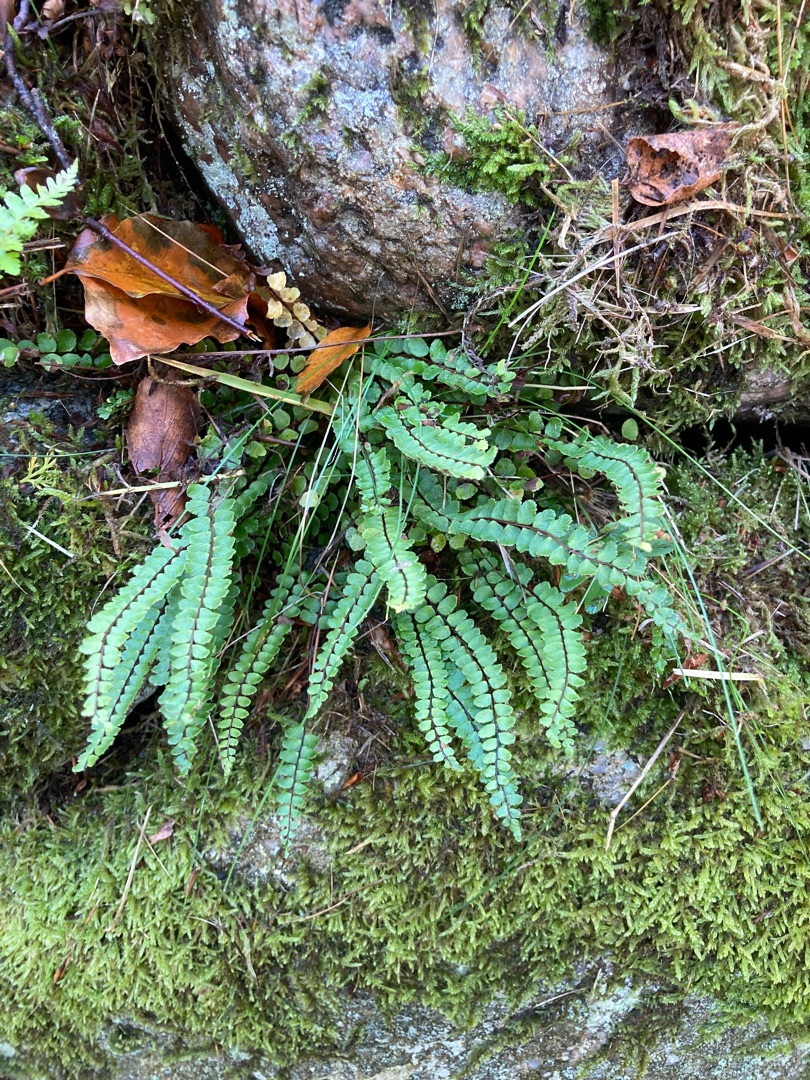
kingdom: Plantae
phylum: Tracheophyta
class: Polypodiopsida
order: Polypodiales
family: Aspleniaceae
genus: Asplenium
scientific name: Asplenium trichomanes
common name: Rundfinnet radeløv
